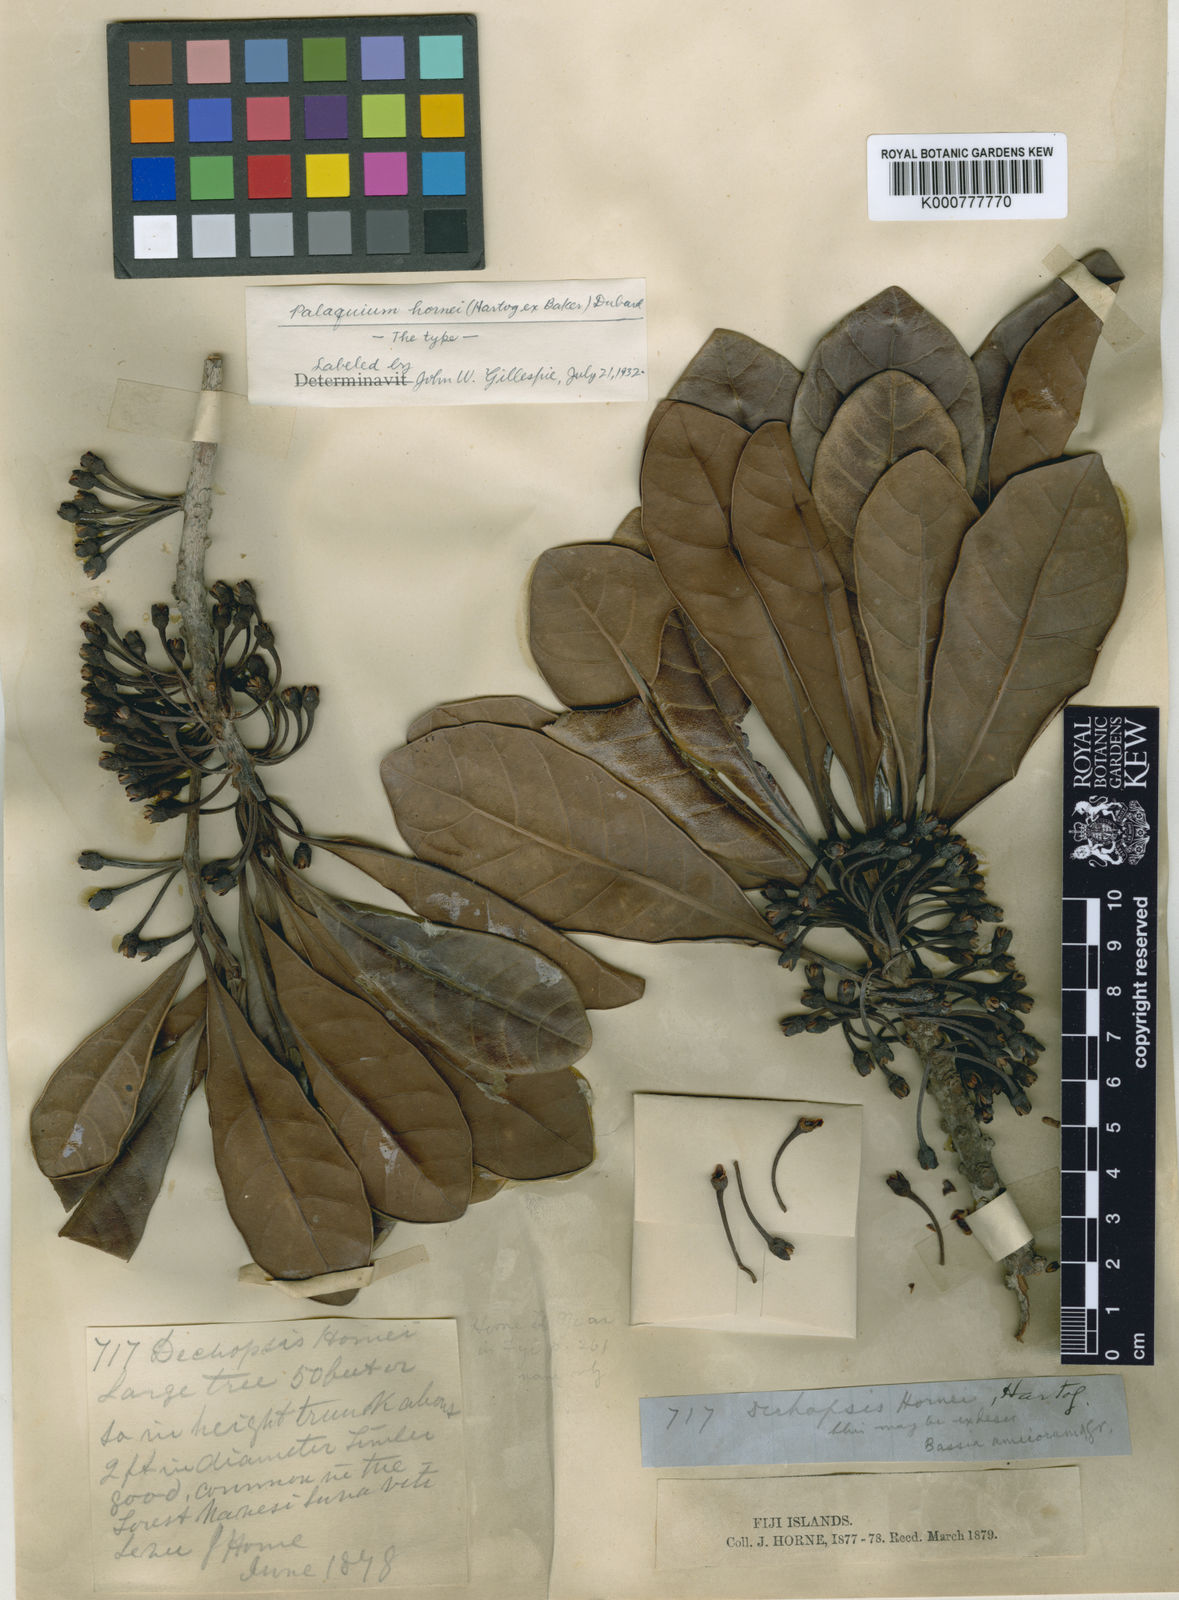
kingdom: Plantae
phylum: Tracheophyta
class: Magnoliopsida
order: Ericales
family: Sapotaceae
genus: Palaquium
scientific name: Palaquium hornei
